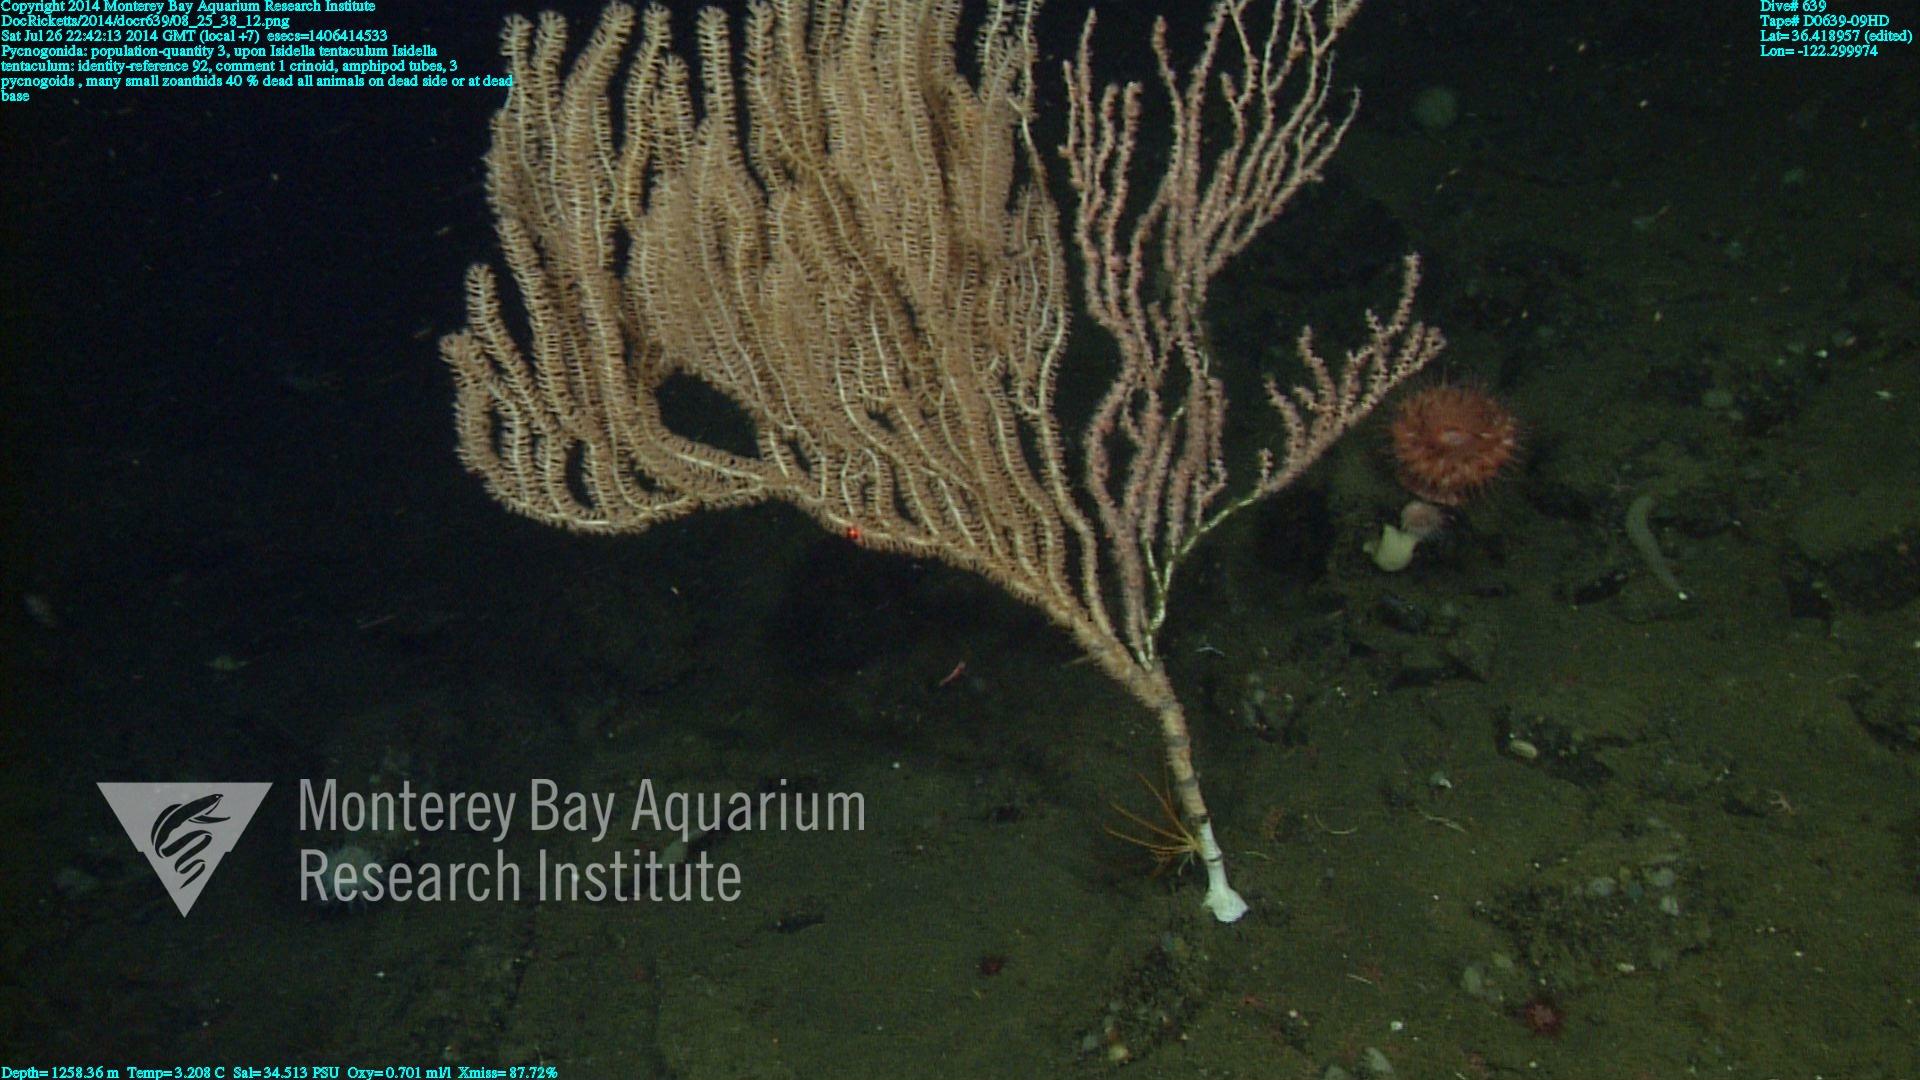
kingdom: Animalia
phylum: Cnidaria
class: Anthozoa
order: Scleralcyonacea
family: Keratoisididae
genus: Isidella
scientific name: Isidella tentaculum
